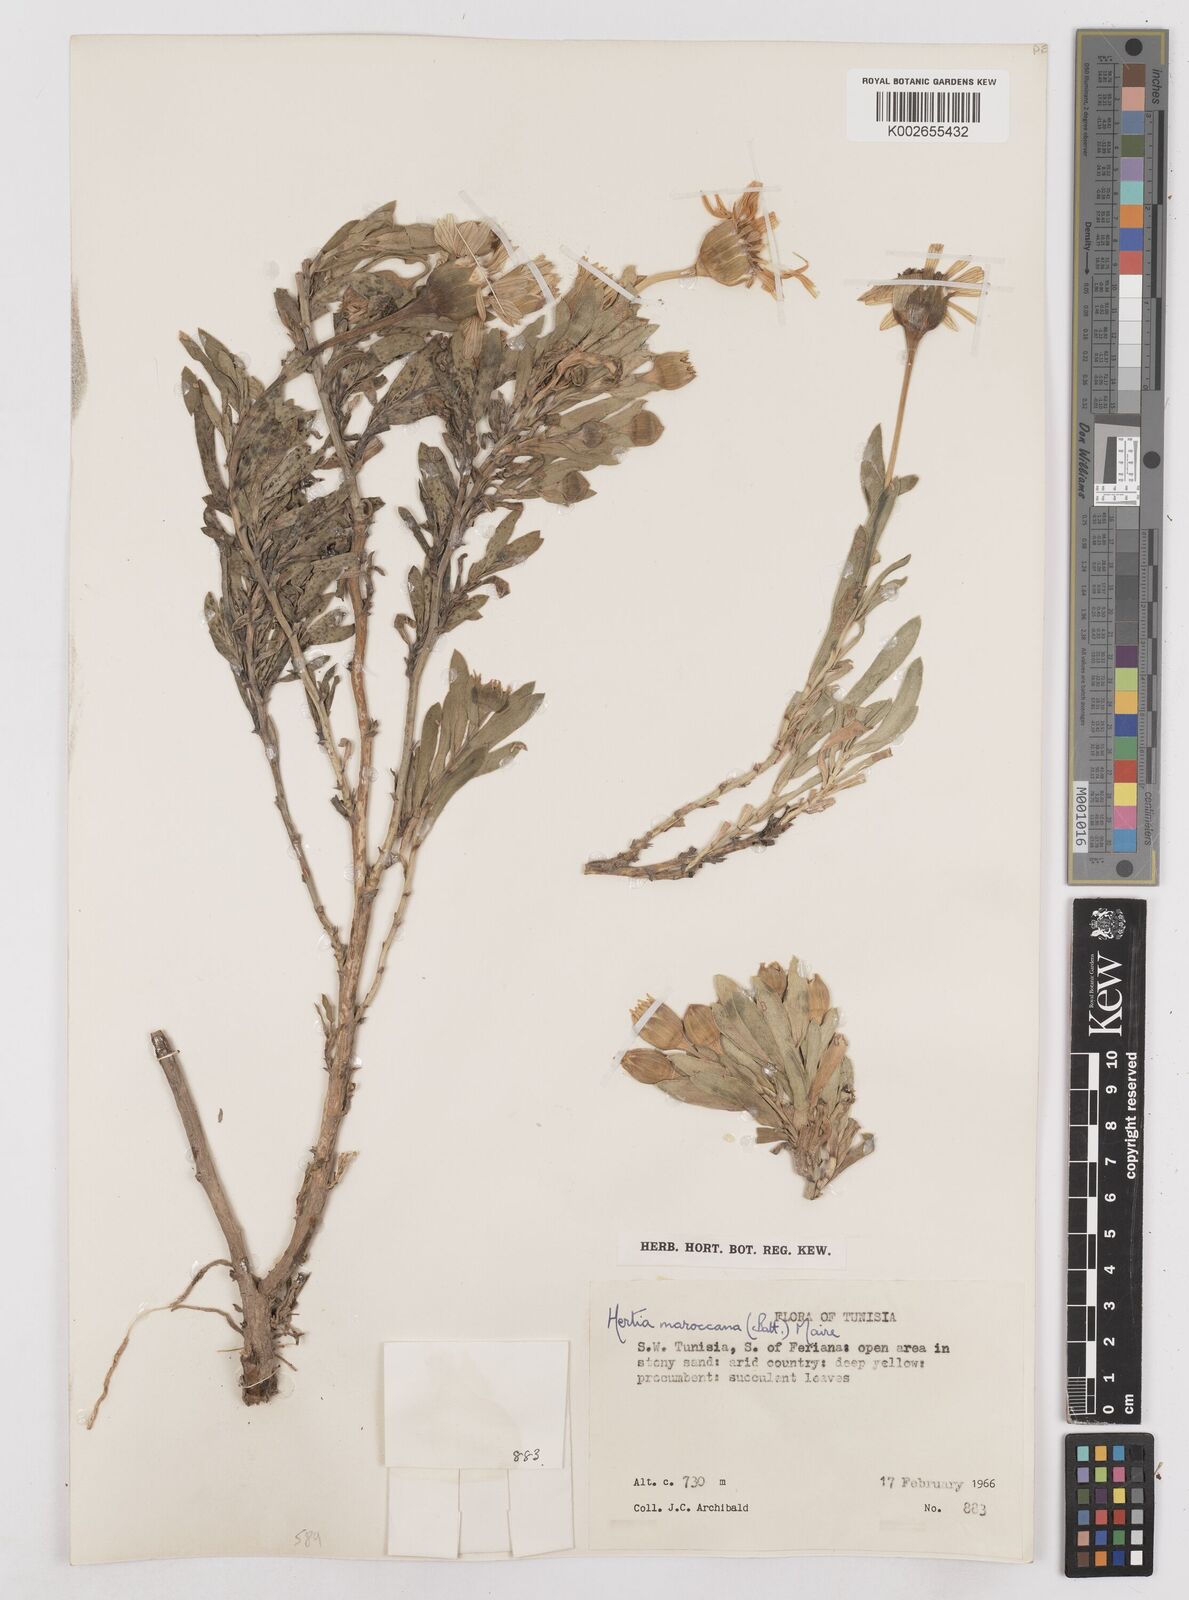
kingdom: Plantae
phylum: Tracheophyta
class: Magnoliopsida
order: Asterales
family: Asteraceae
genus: Hertia
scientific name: Hertia cheirifolia
